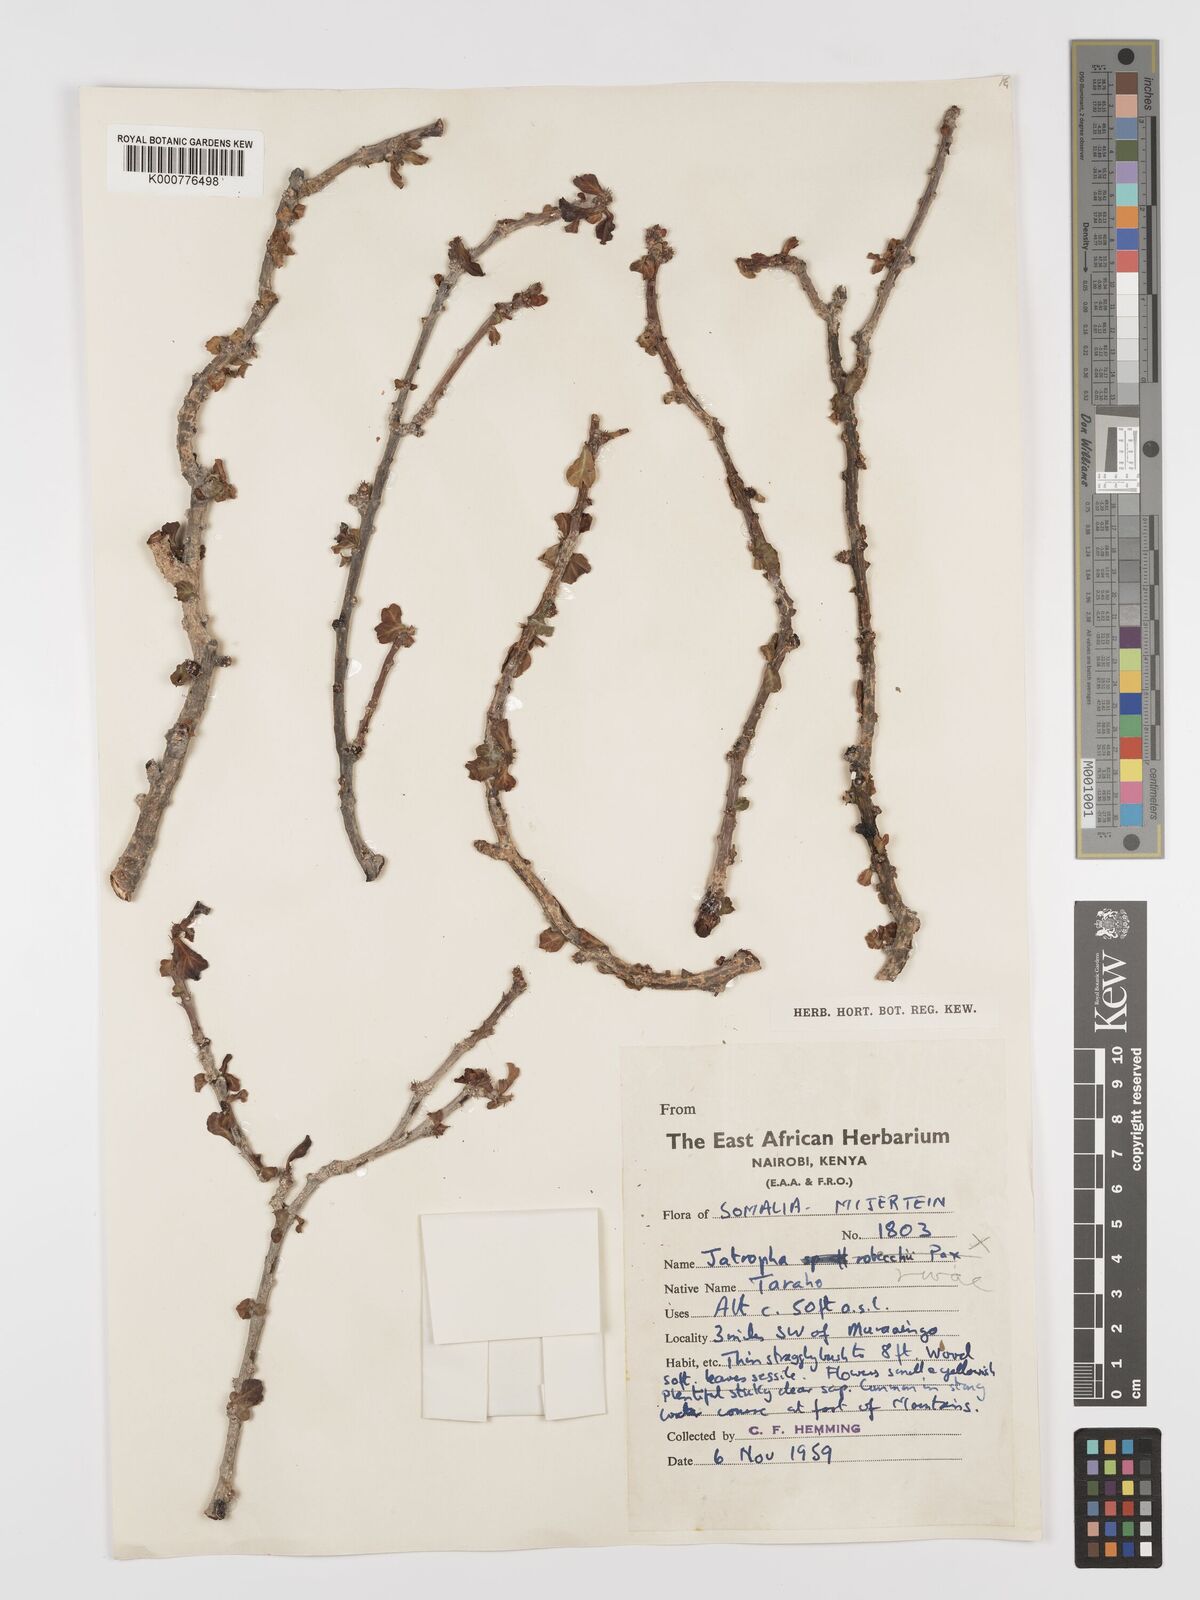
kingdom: Plantae
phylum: Tracheophyta
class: Magnoliopsida
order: Malpighiales
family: Euphorbiaceae
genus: Jatropha
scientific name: Jatropha robecchii
